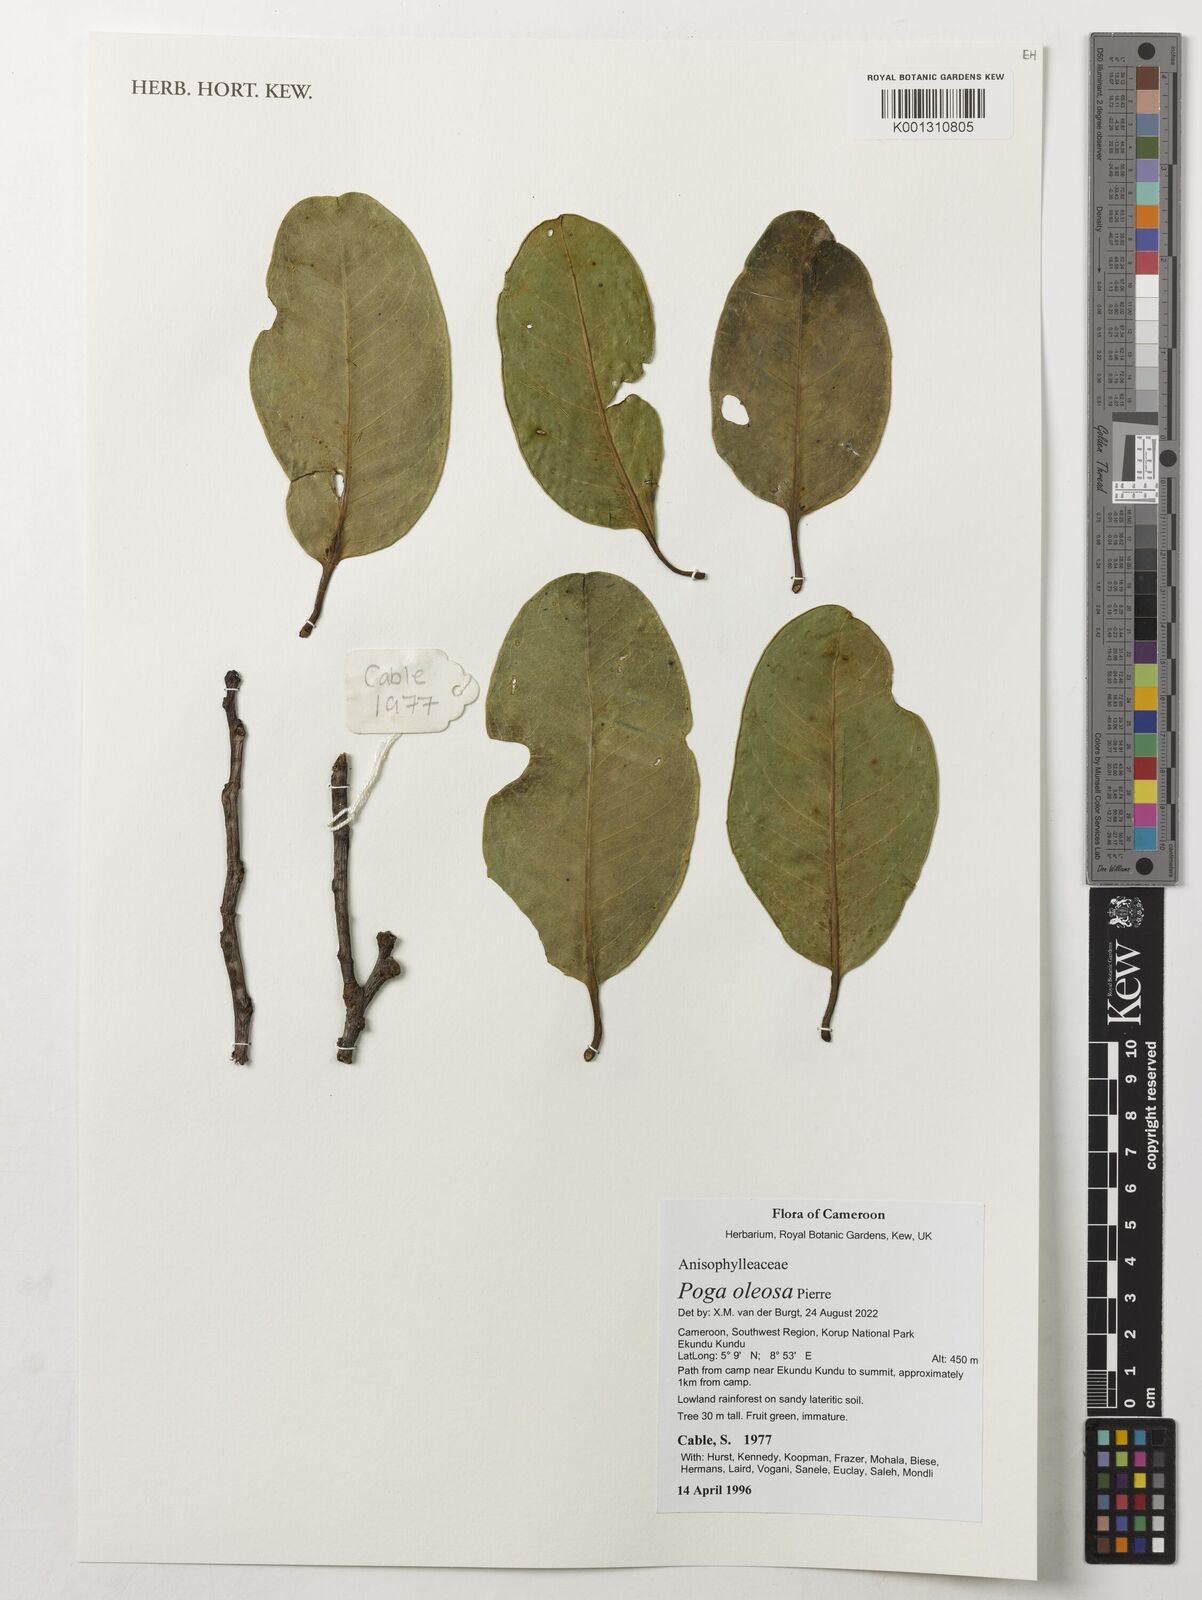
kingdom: Plantae
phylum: Tracheophyta
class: Magnoliopsida
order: Cucurbitales
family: Anisophylleaceae
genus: Poga
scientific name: Poga oleosa
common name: African brazil nut
